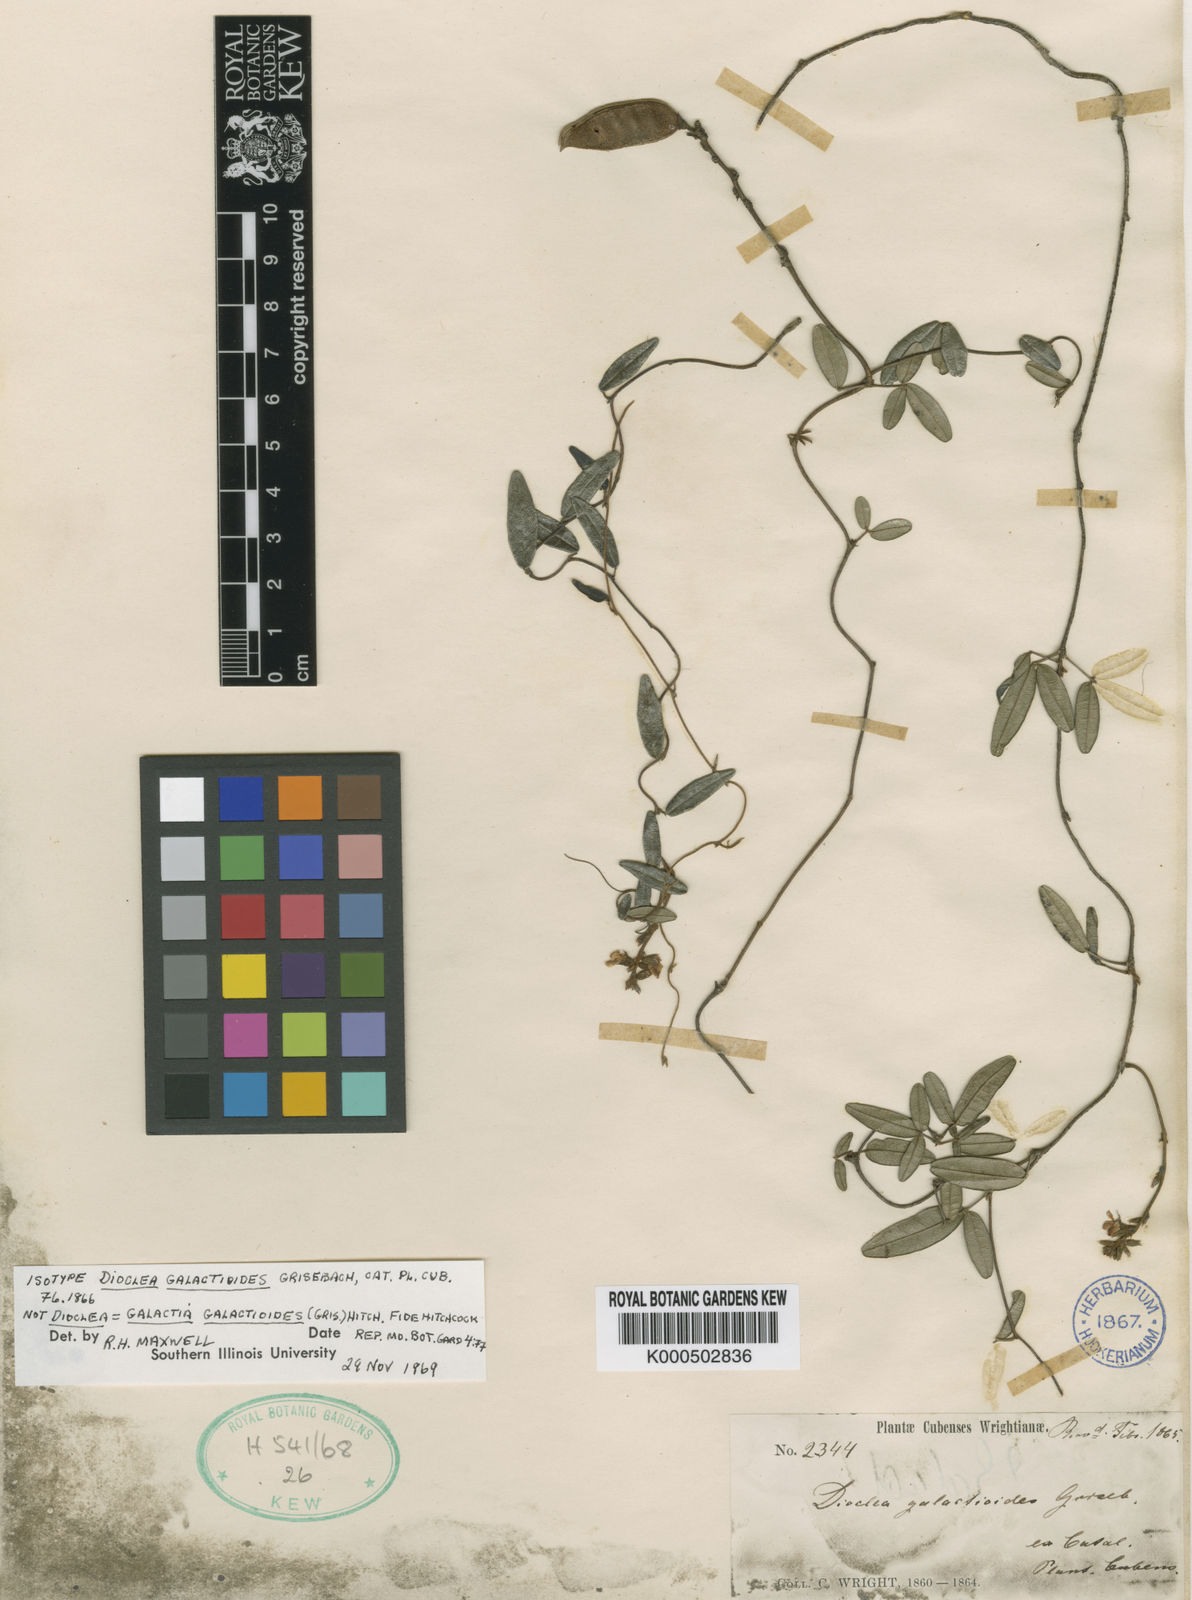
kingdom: Plantae
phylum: Tracheophyta
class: Magnoliopsida
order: Fabales
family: Fabaceae
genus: Galactia
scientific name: Galactia galactioides
